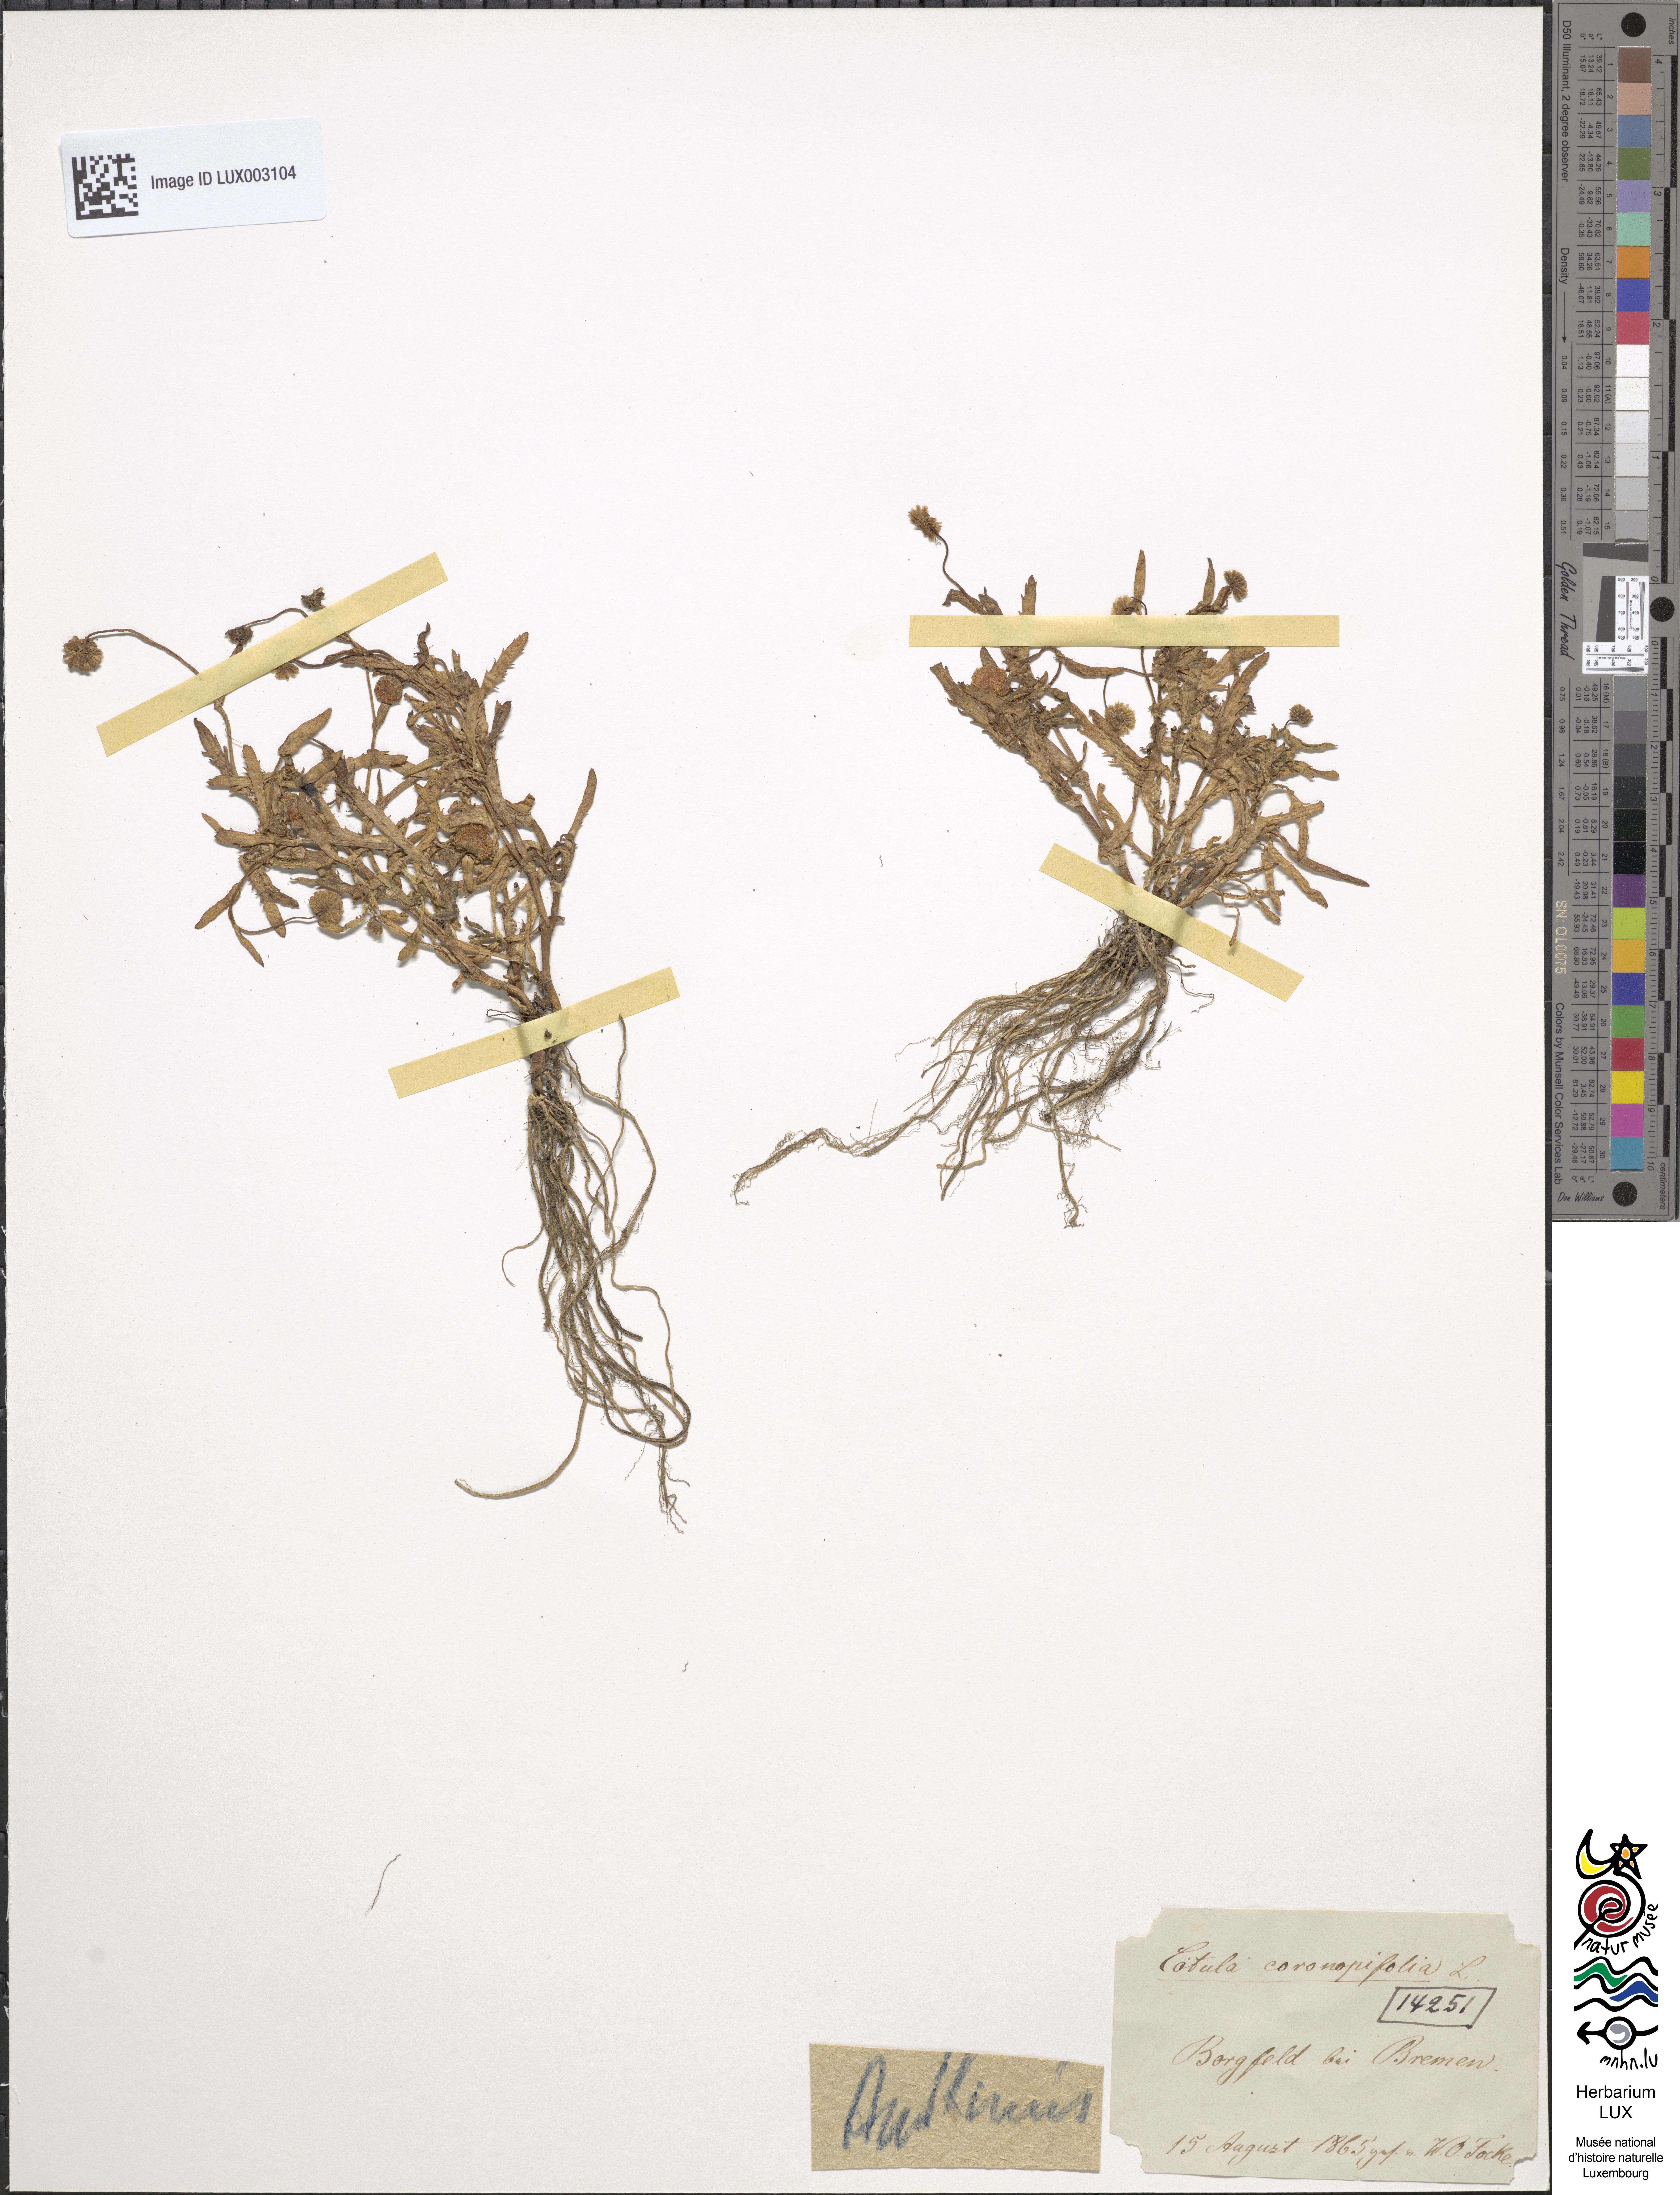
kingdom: Plantae
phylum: Tracheophyta
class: Magnoliopsida
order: Asterales
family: Asteraceae
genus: Cotula
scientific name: Cotula coronopifolia
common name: Buttonweed
